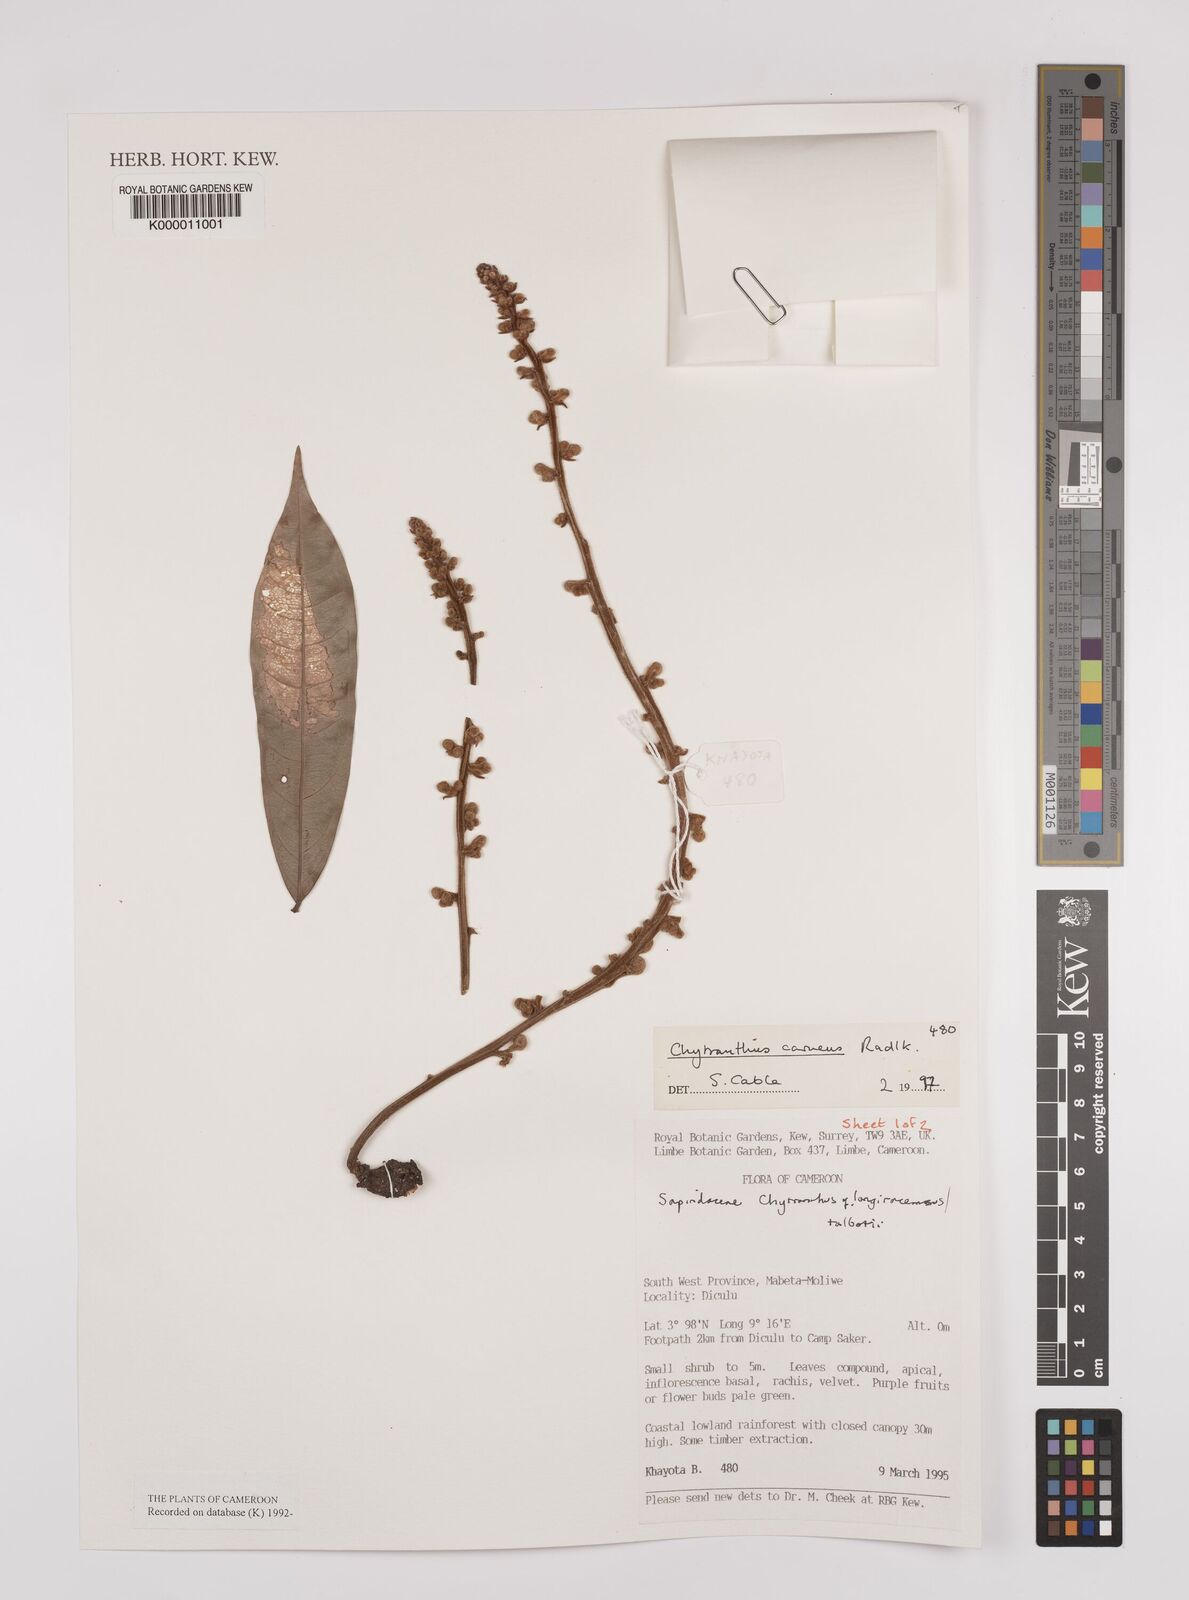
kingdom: Plantae
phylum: Tracheophyta
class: Magnoliopsida
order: Sapindales
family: Sapindaceae
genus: Chytranthus
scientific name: Chytranthus carneus
